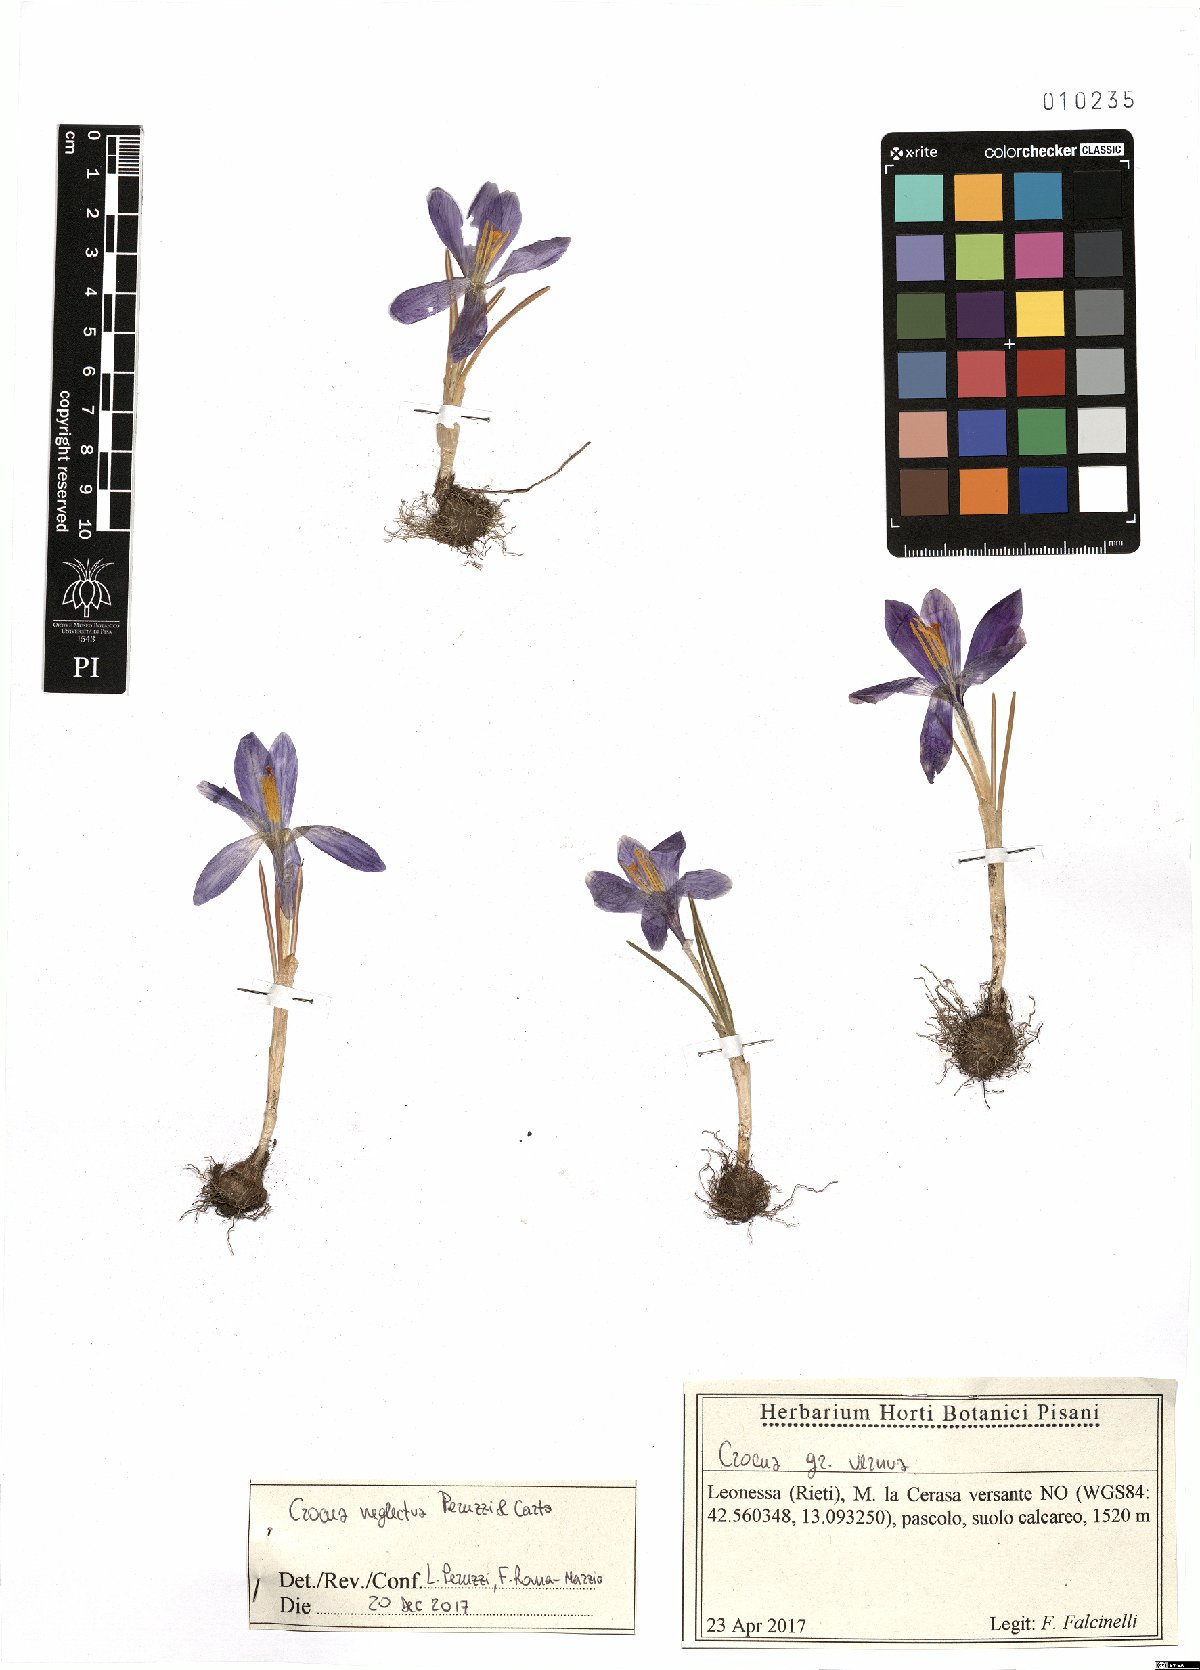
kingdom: Plantae
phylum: Tracheophyta
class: Liliopsida
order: Asparagales
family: Iridaceae
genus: Crocus
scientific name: Crocus neglectus
